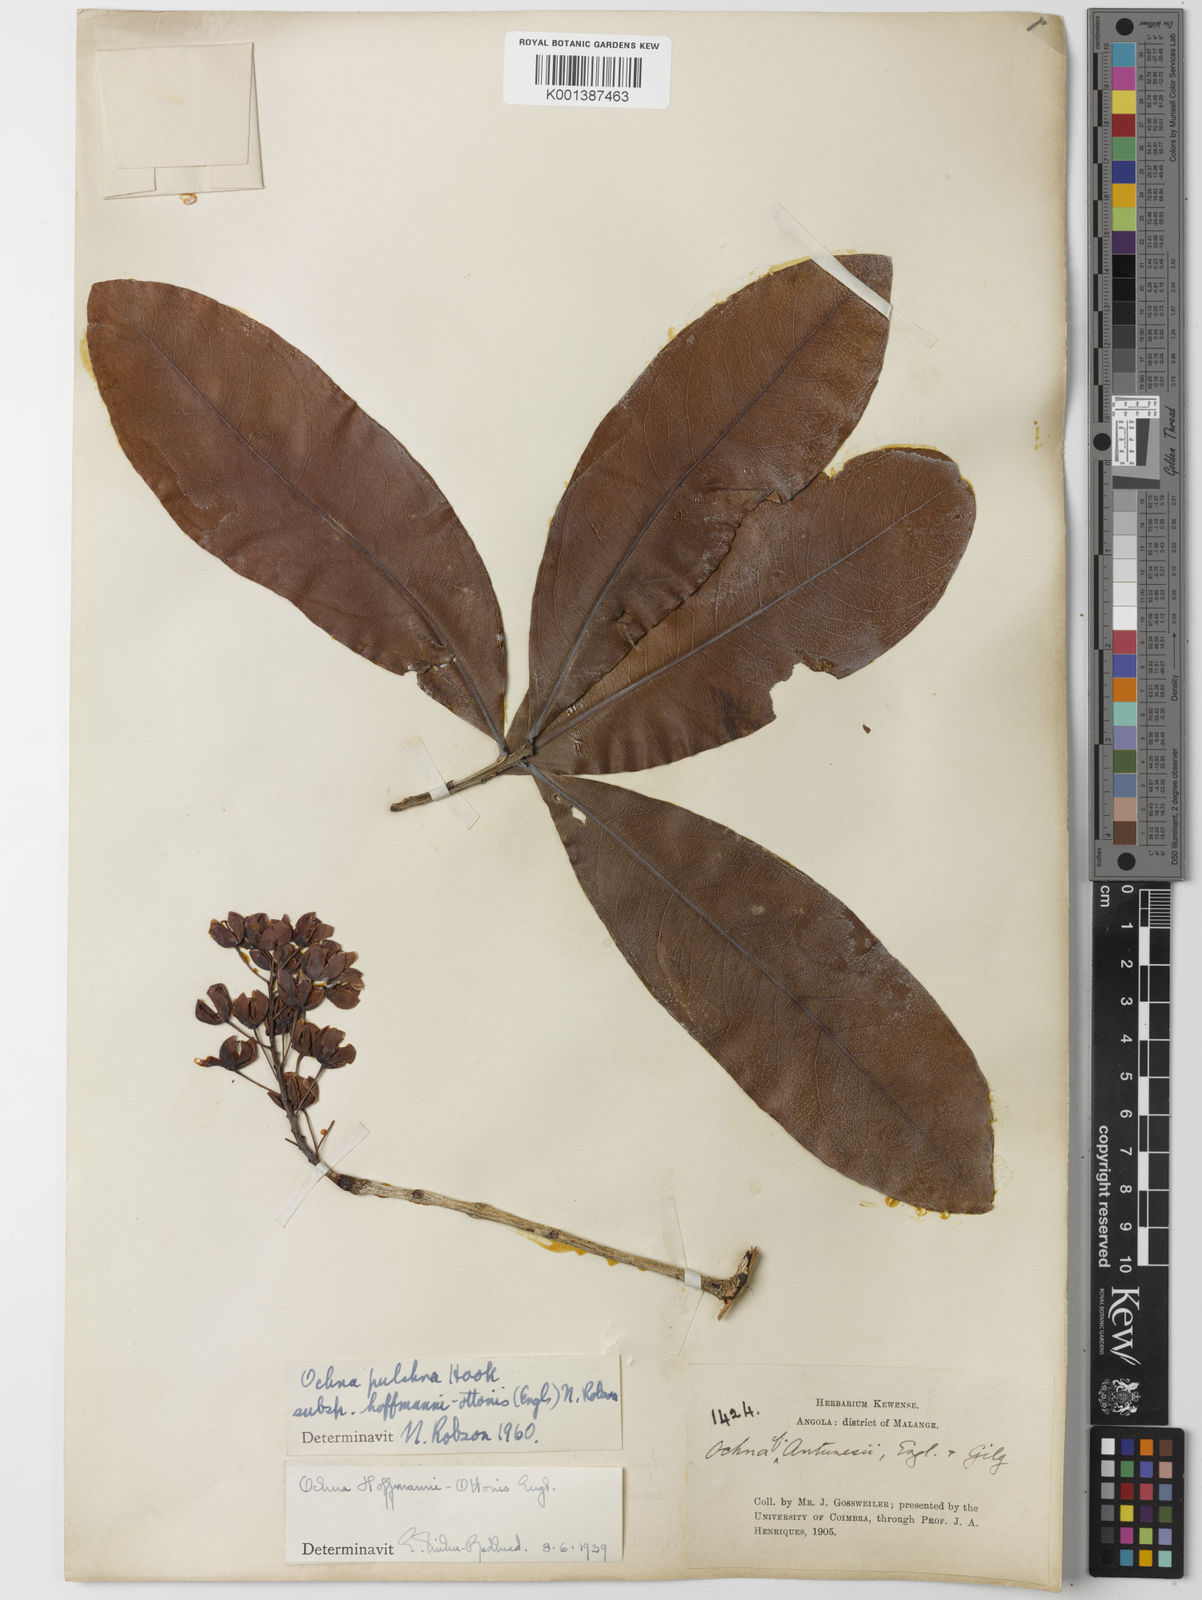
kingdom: Plantae
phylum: Tracheophyta
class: Magnoliopsida
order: Malpighiales
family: Ochnaceae
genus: Ochna
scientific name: Ochna pulchra
